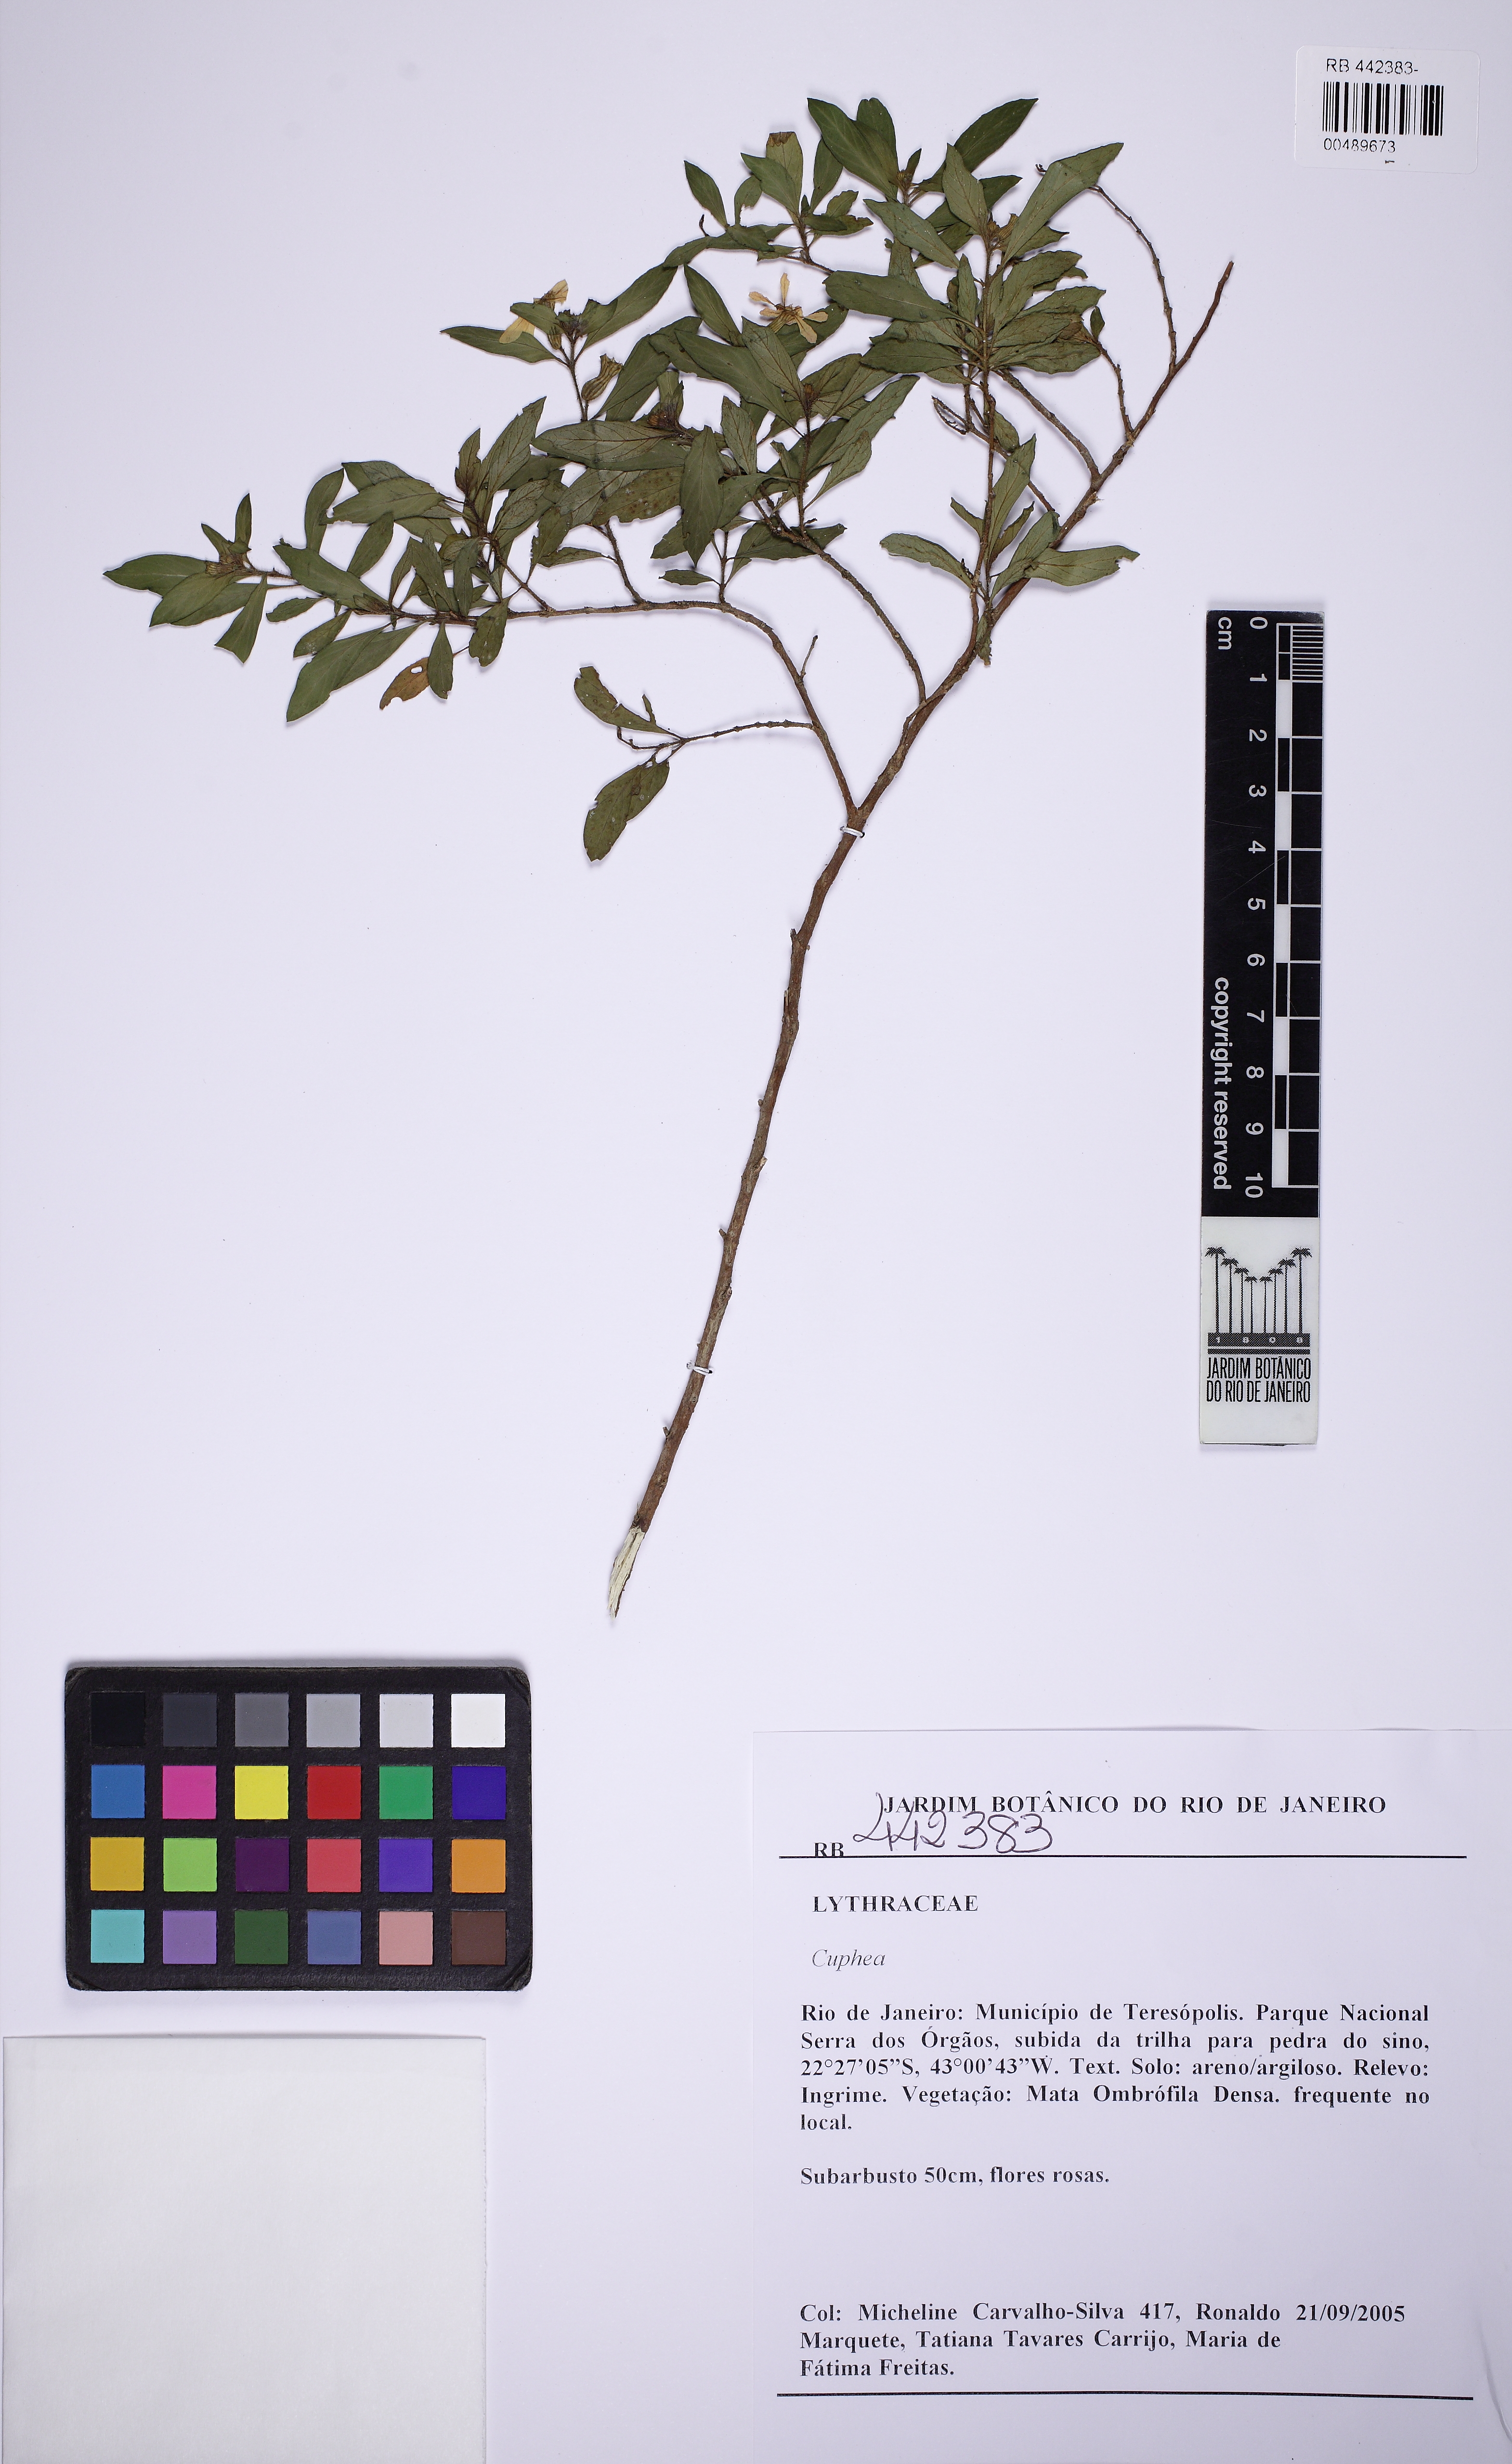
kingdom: Plantae
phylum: Tracheophyta
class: Magnoliopsida
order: Myrtales
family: Lythraceae
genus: Cuphea
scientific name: Cuphea ingrata
